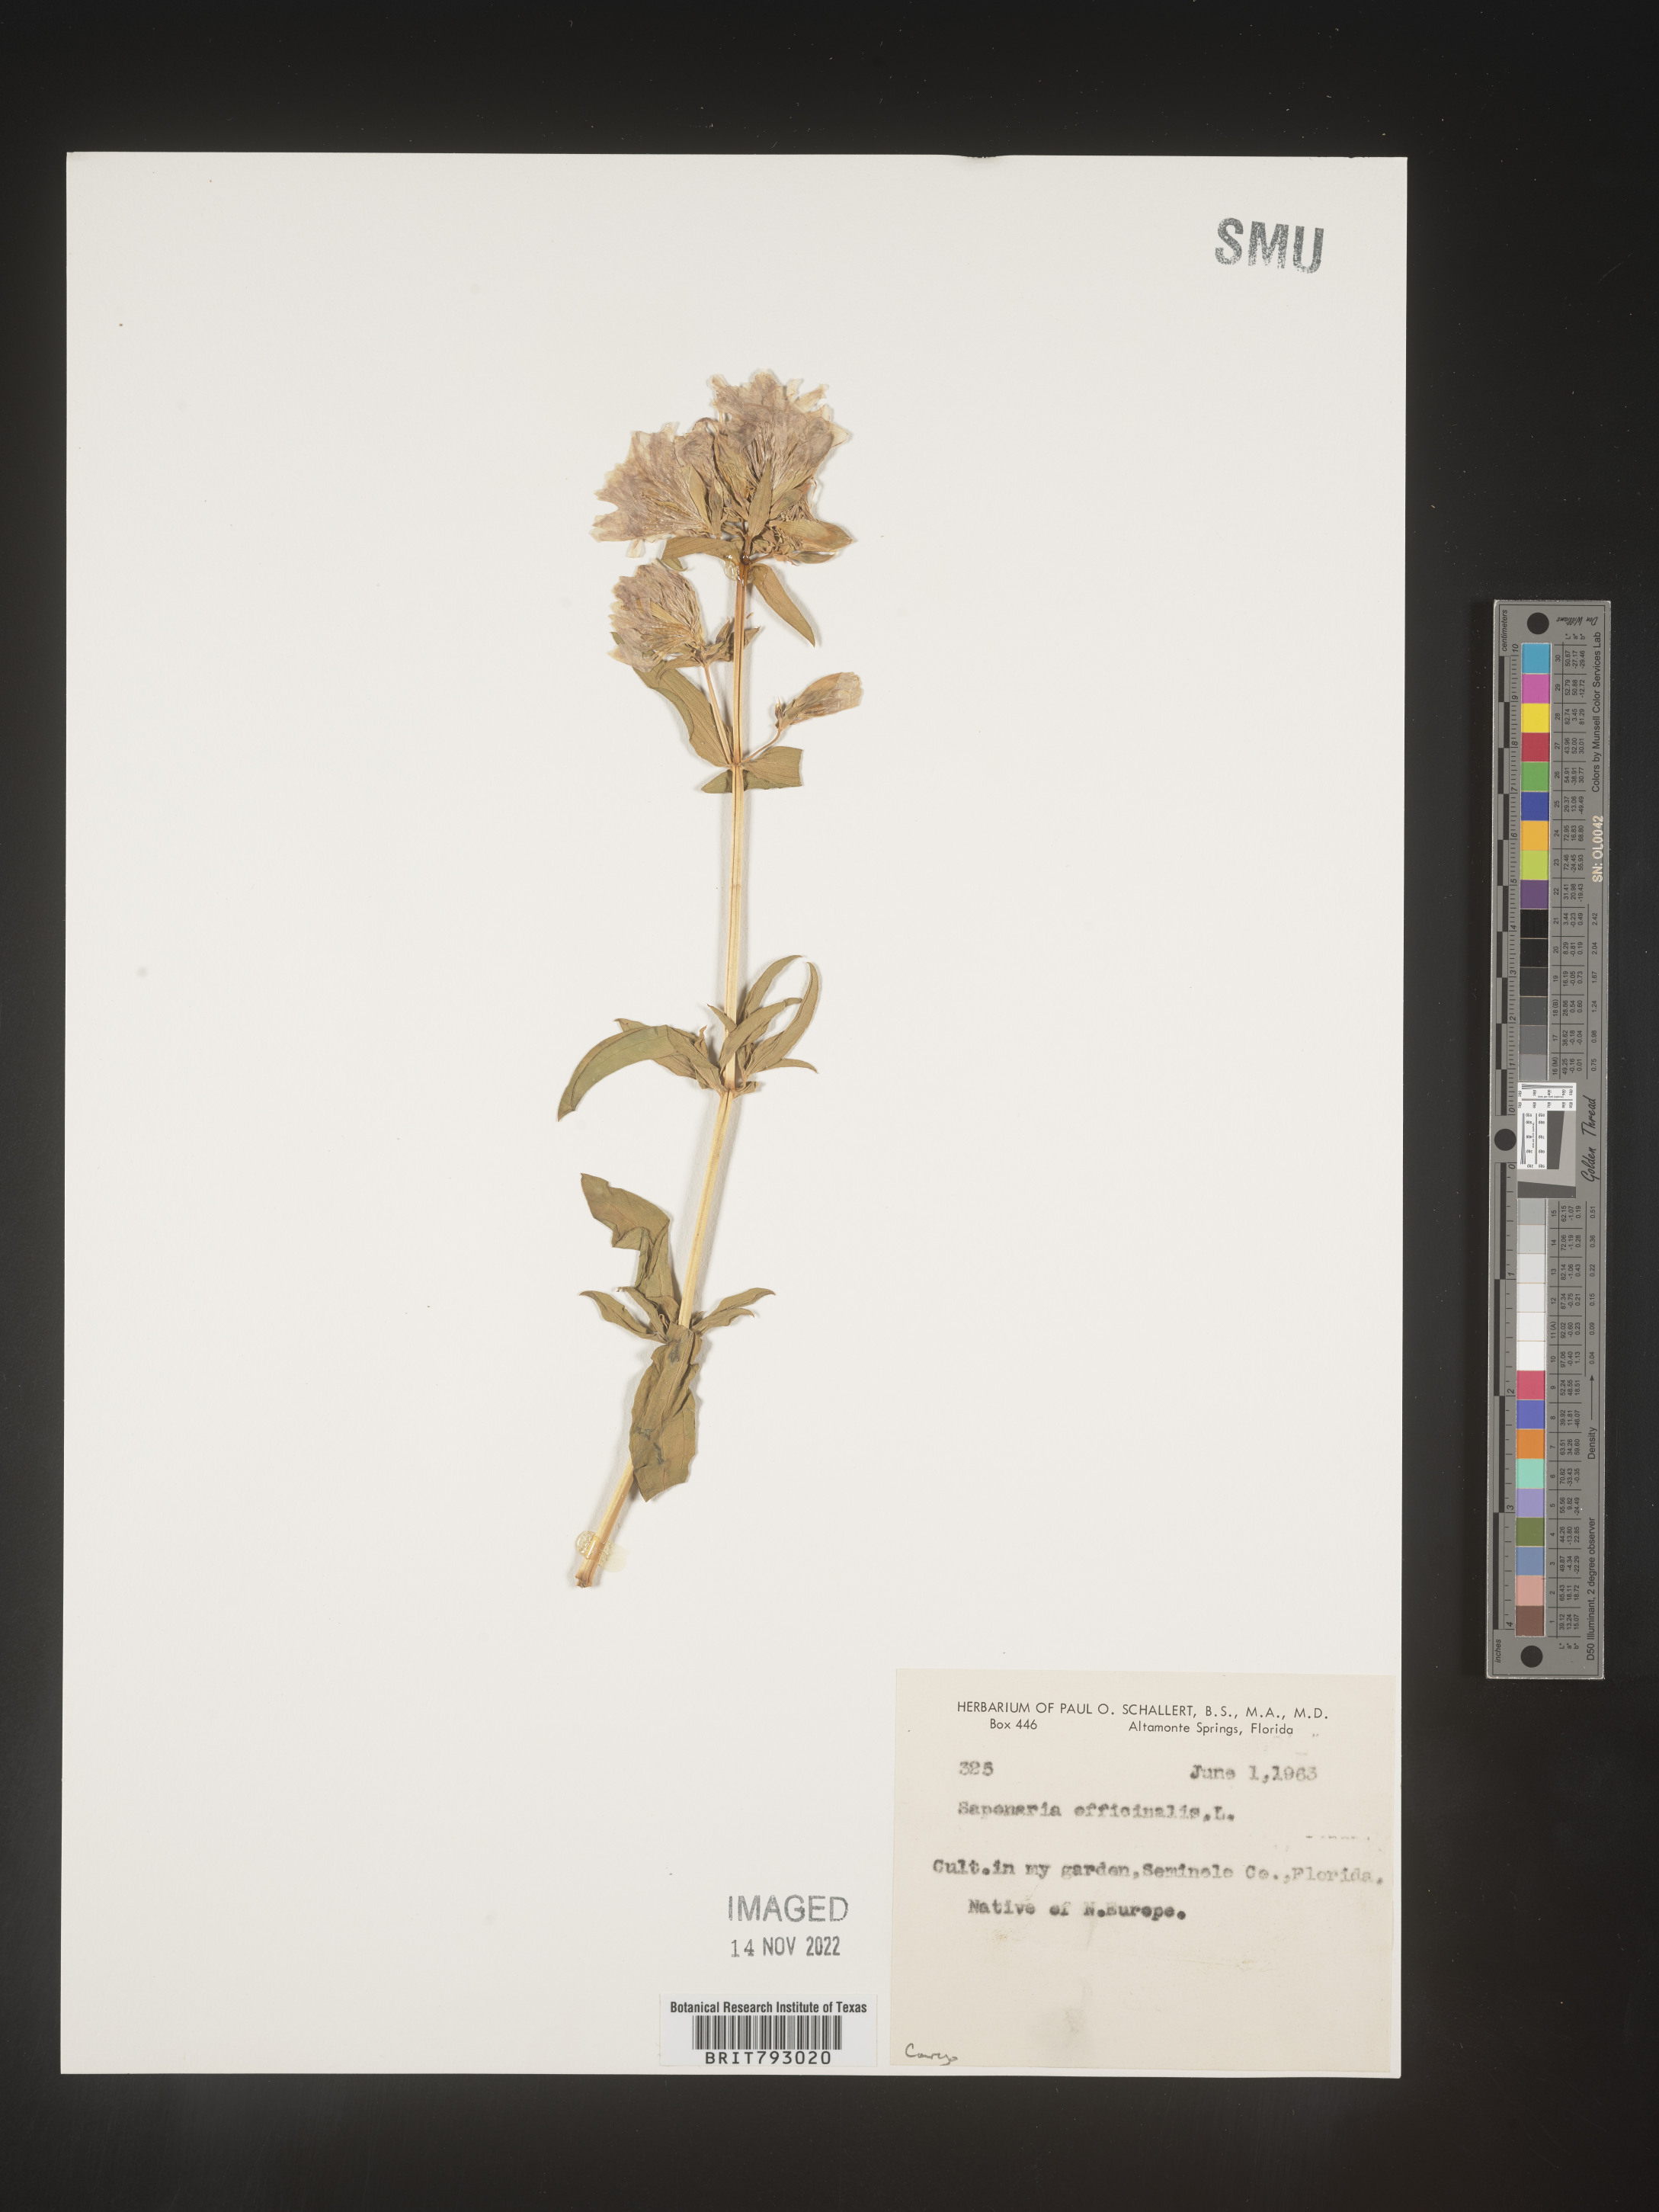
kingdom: Plantae
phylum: Tracheophyta
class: Magnoliopsida
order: Caryophyllales
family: Caryophyllaceae
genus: Saponaria
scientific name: Saponaria
